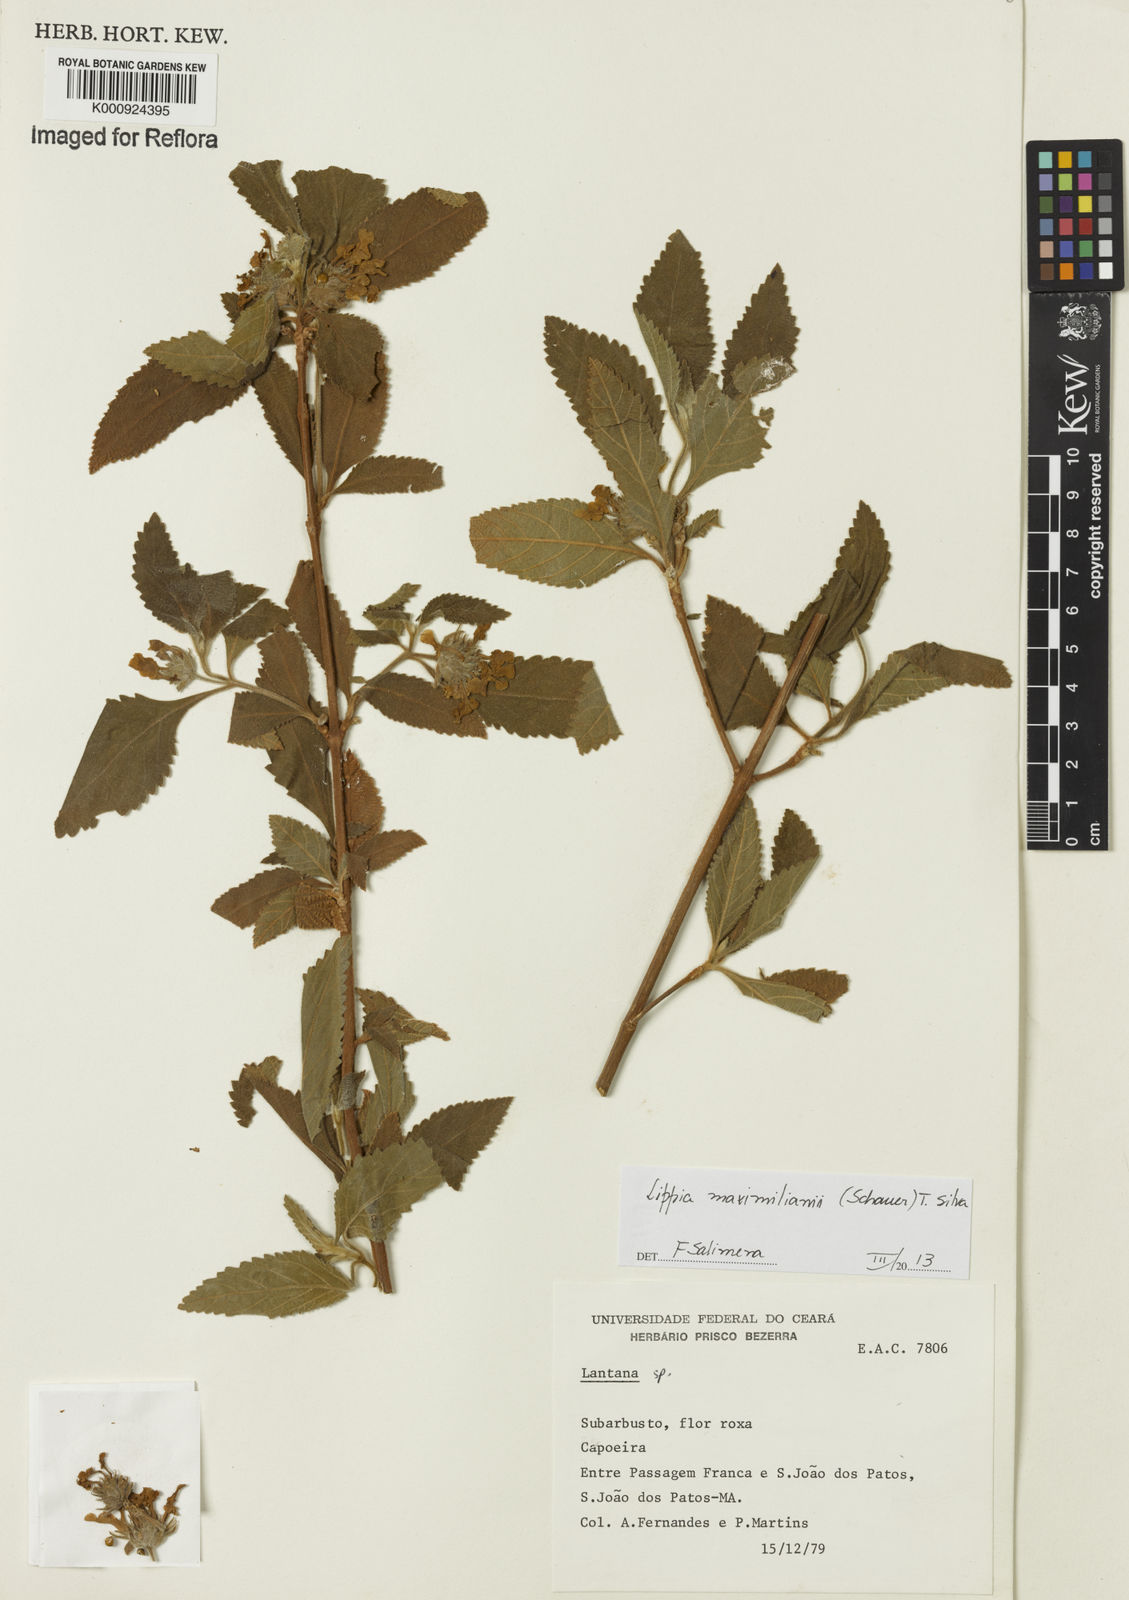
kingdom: Plantae
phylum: Tracheophyta
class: Magnoliopsida
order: Lamiales
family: Verbenaceae
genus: Lippia
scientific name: Lippia maximiliani
